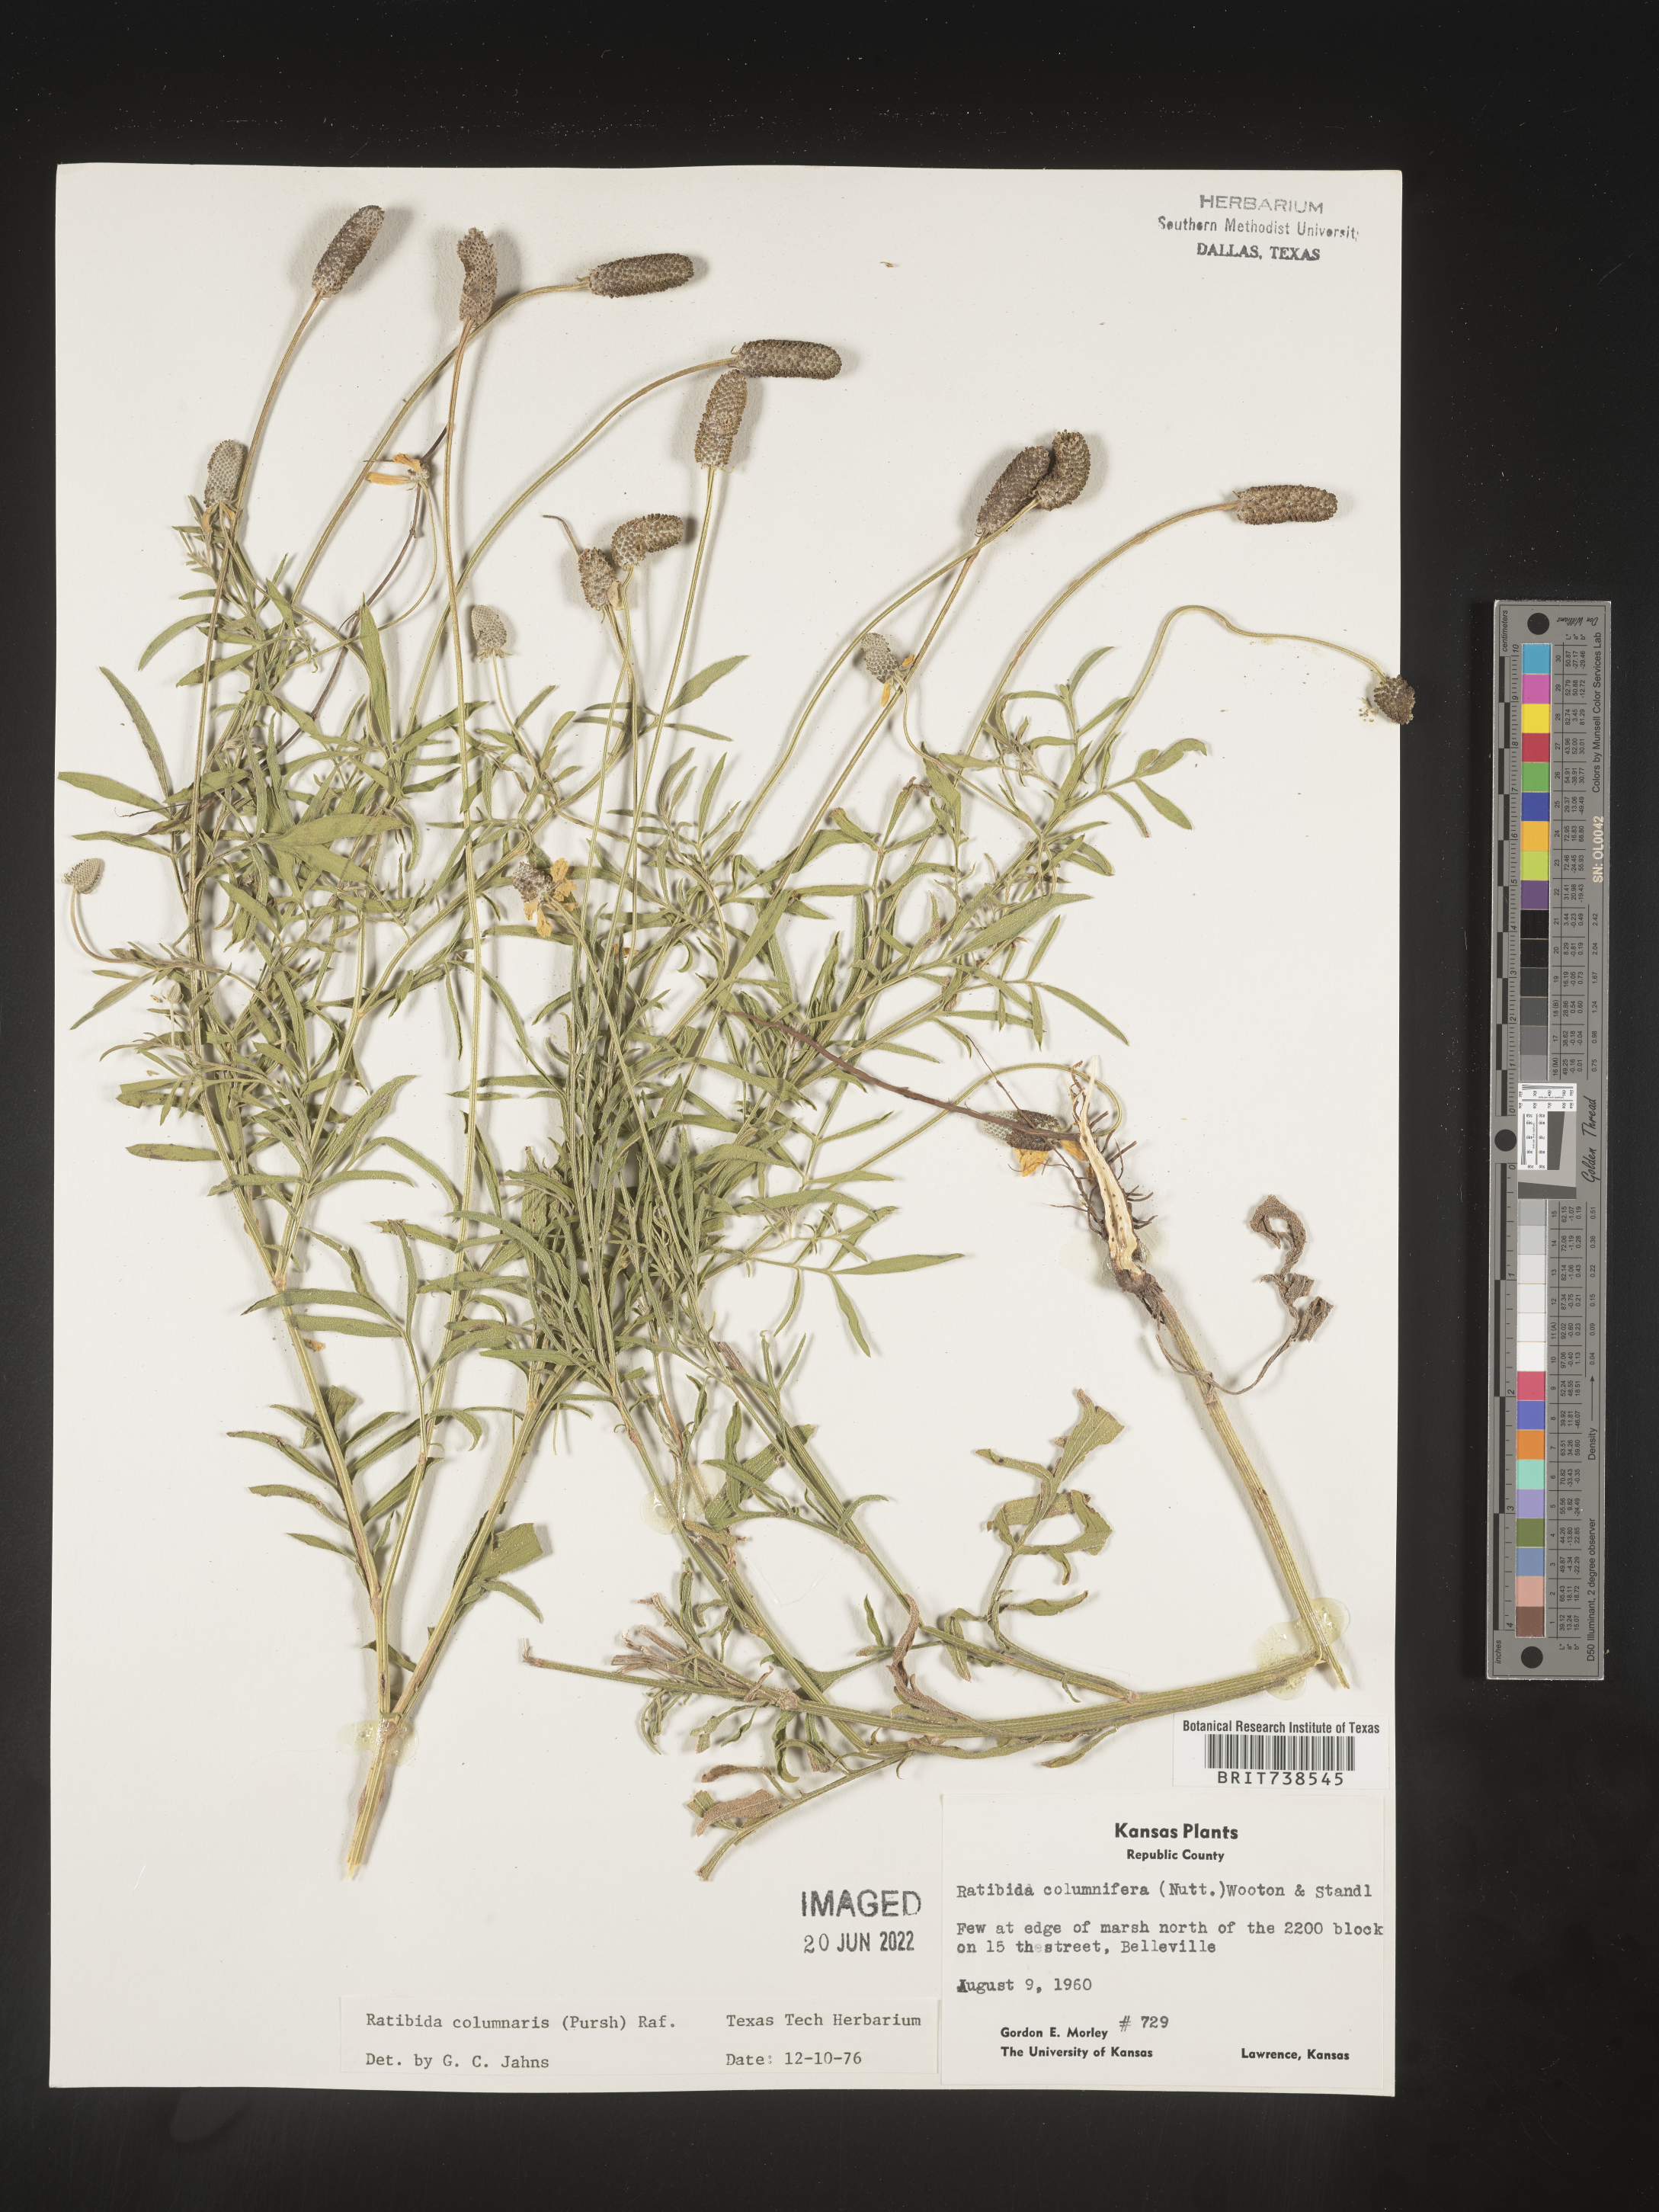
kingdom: Plantae
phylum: Tracheophyta
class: Magnoliopsida
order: Asterales
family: Asteraceae
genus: Ratibida
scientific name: Ratibida columnifera
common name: Prairie coneflower
